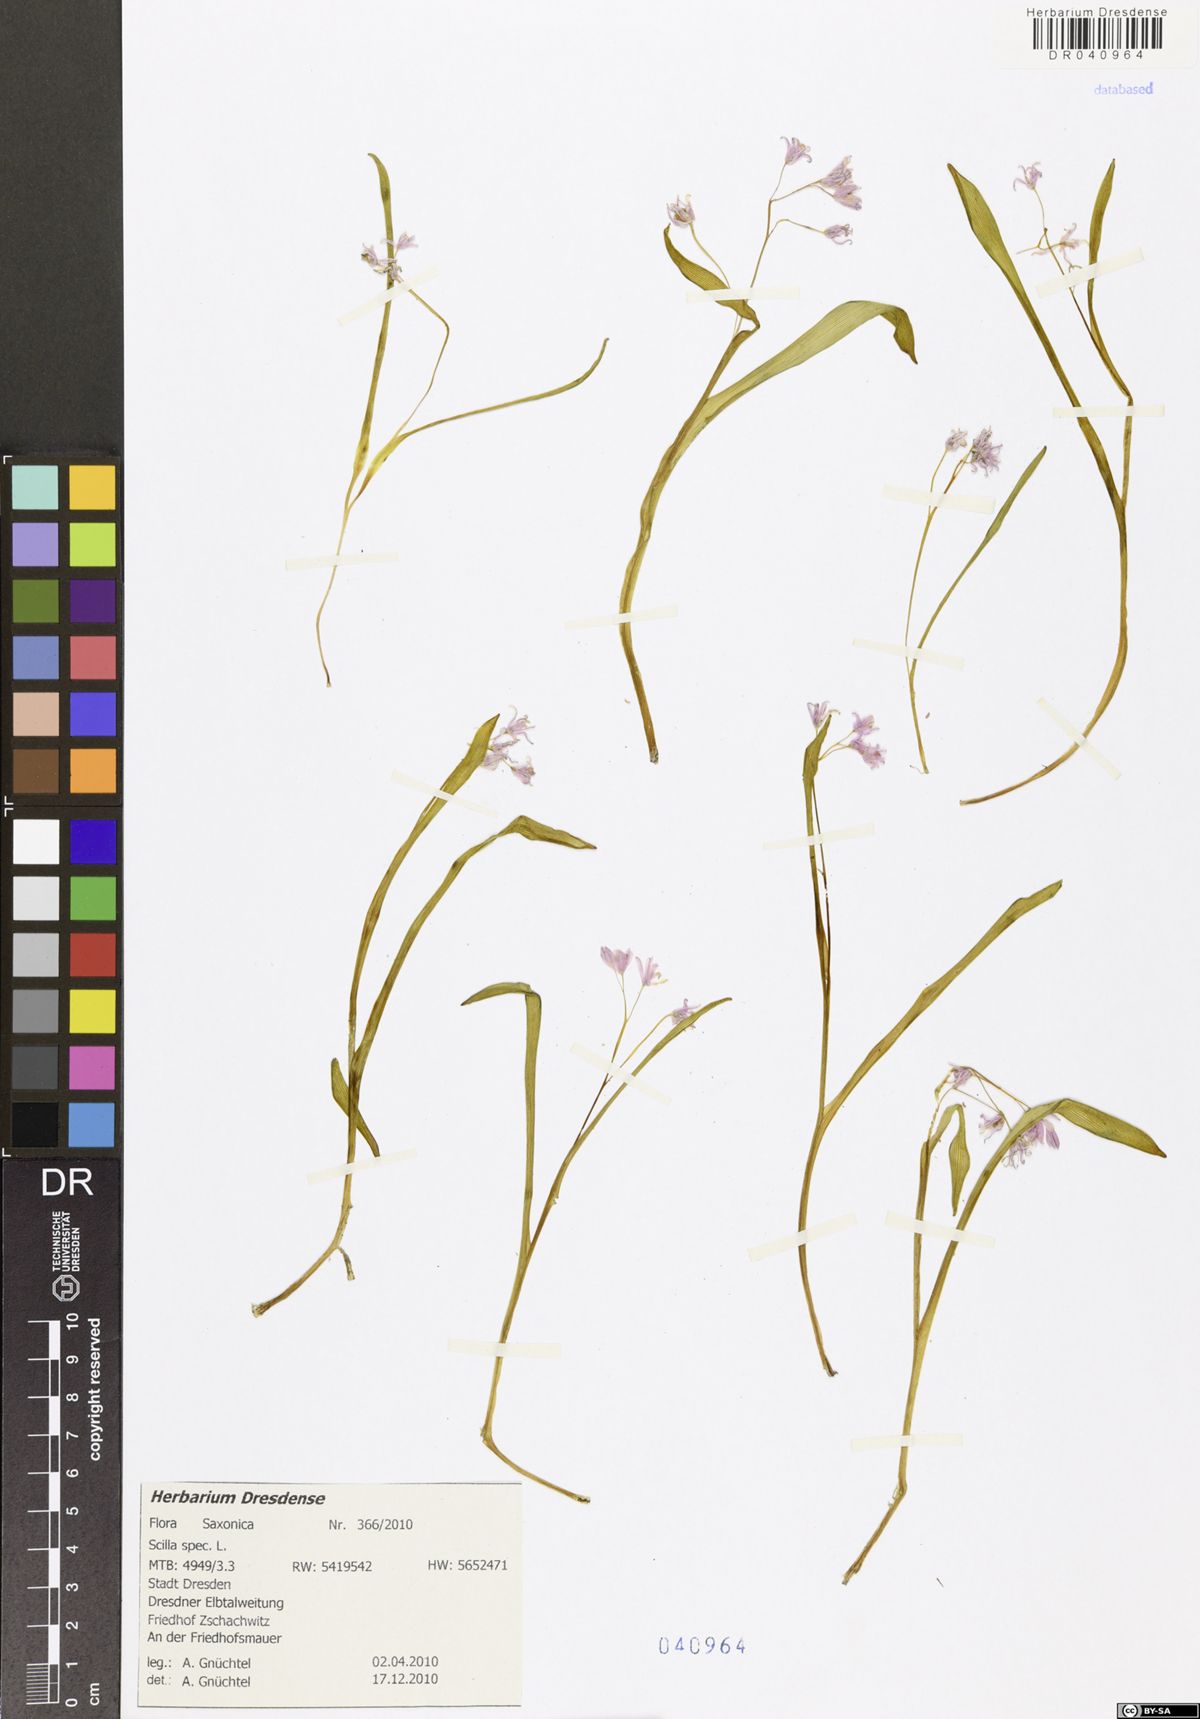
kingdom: Plantae
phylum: Tracheophyta
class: Liliopsida
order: Asparagales
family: Asparagaceae
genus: Scilla
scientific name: Scilla
